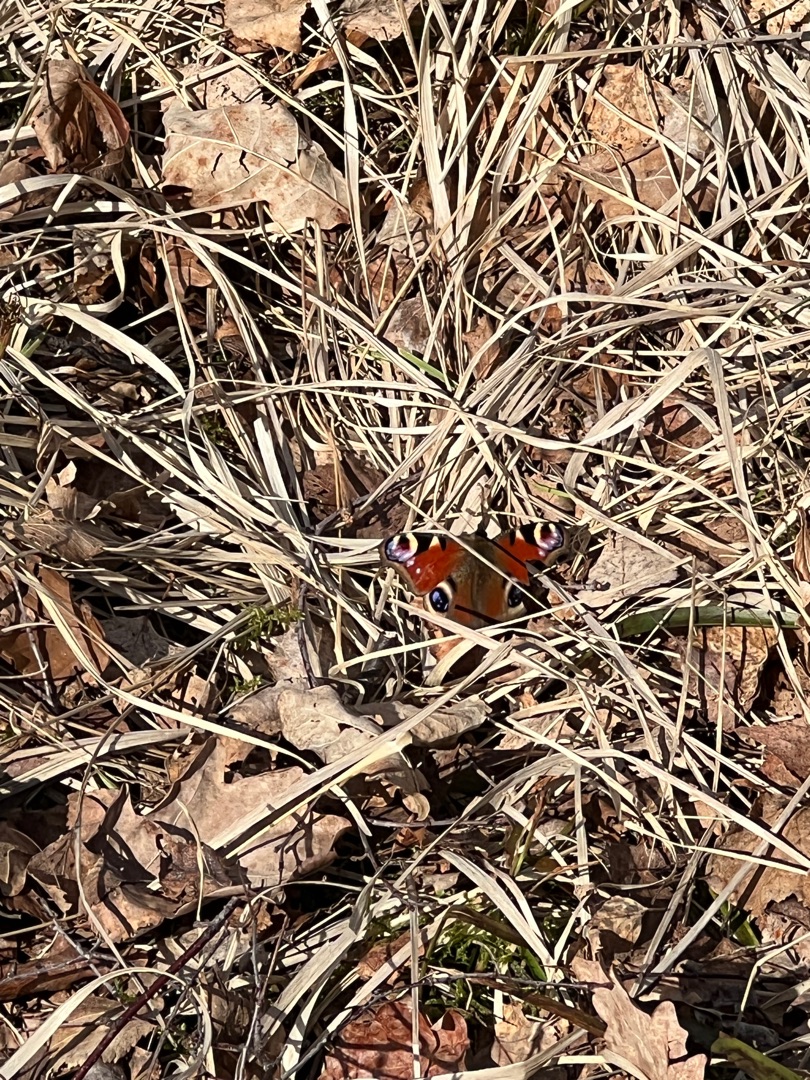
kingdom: Animalia
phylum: Arthropoda
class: Insecta
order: Lepidoptera
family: Nymphalidae
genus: Aglais
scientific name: Aglais io
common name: Dagpåfugleøje
